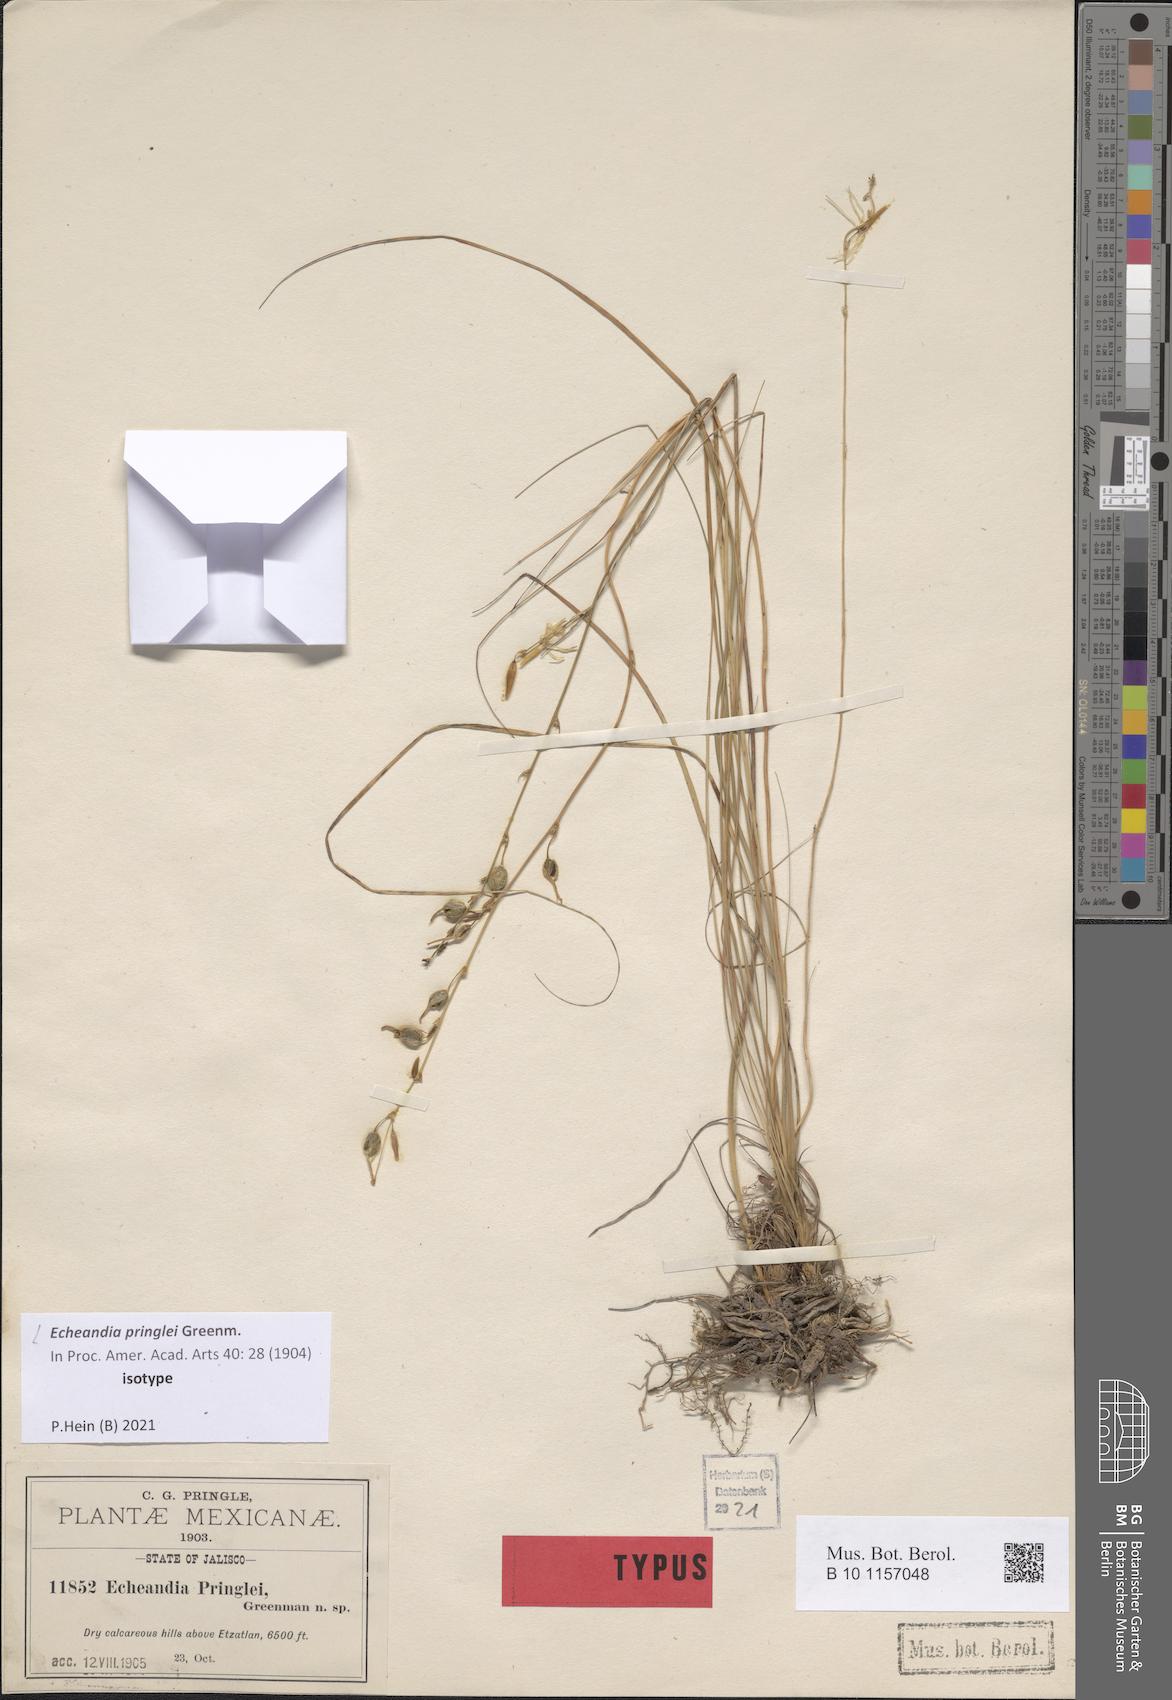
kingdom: Plantae
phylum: Tracheophyta
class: Liliopsida
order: Asparagales
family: Asparagaceae
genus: Echeandia
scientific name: Echeandia flexuosa
